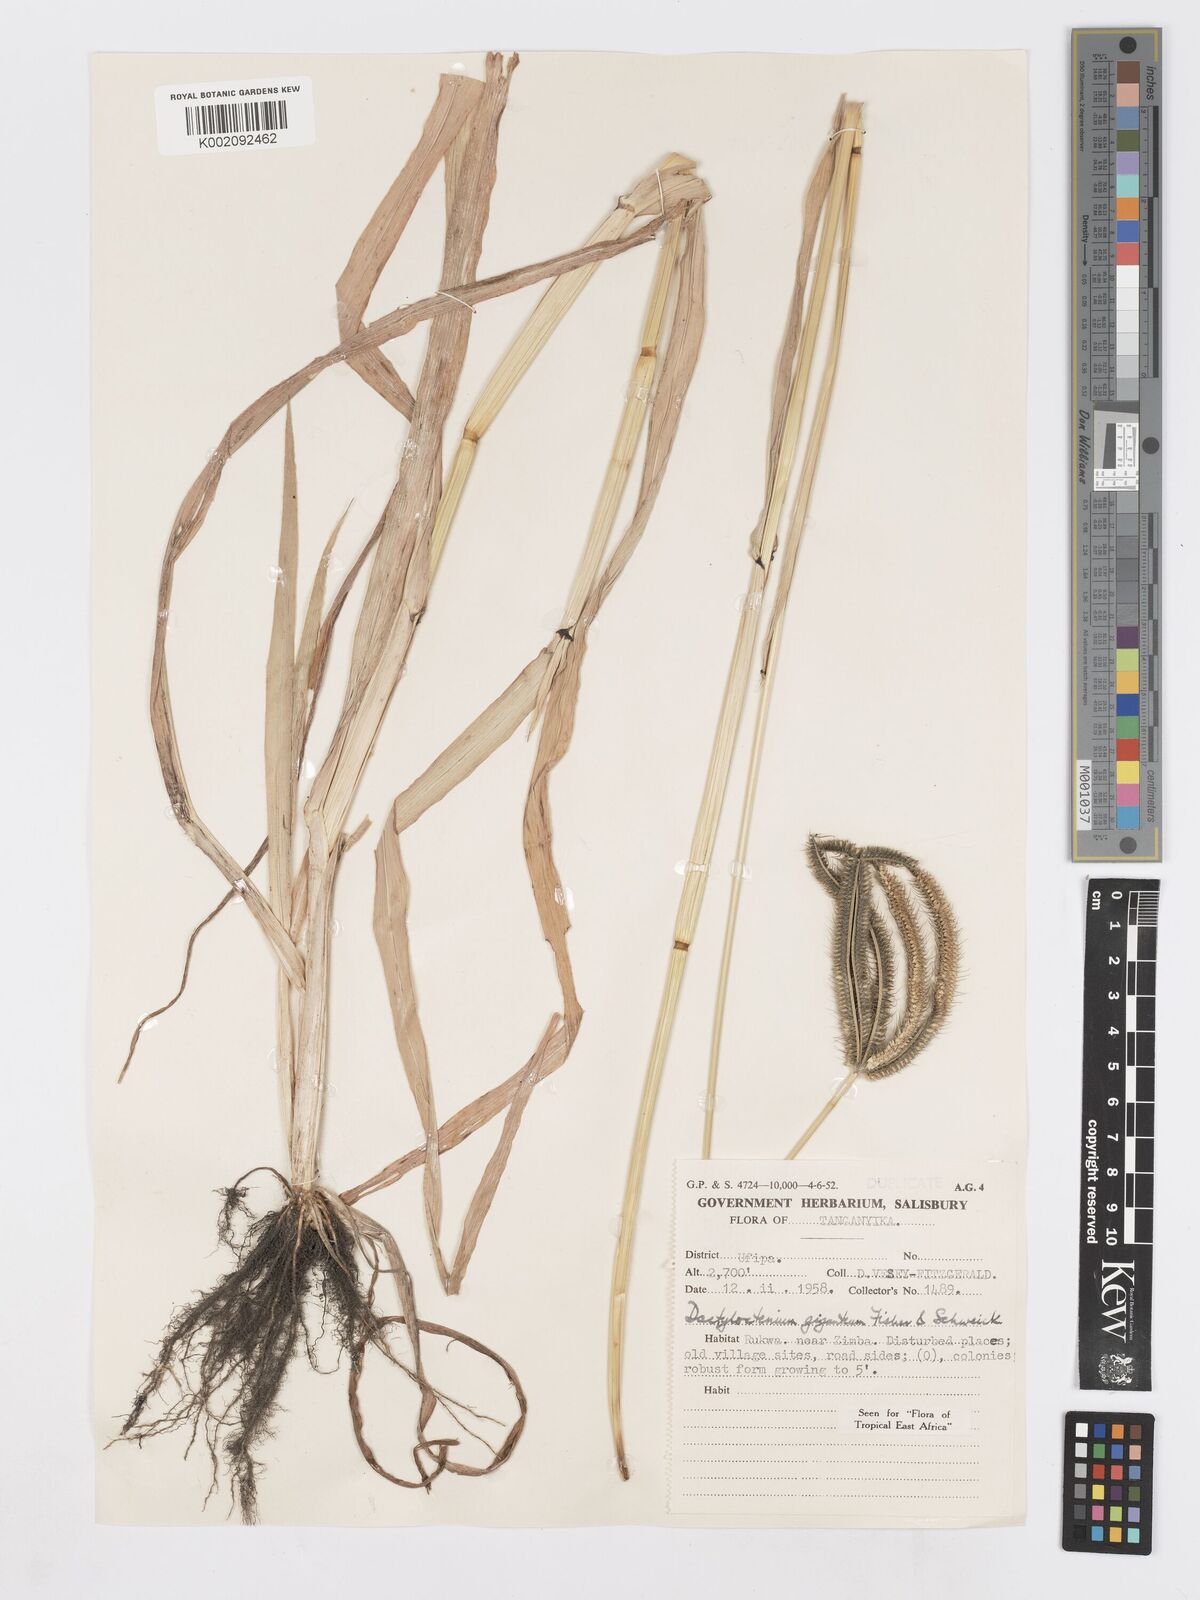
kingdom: Plantae
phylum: Tracheophyta
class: Liliopsida
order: Poales
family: Poaceae
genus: Dactyloctenium
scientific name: Dactyloctenium giganteum
